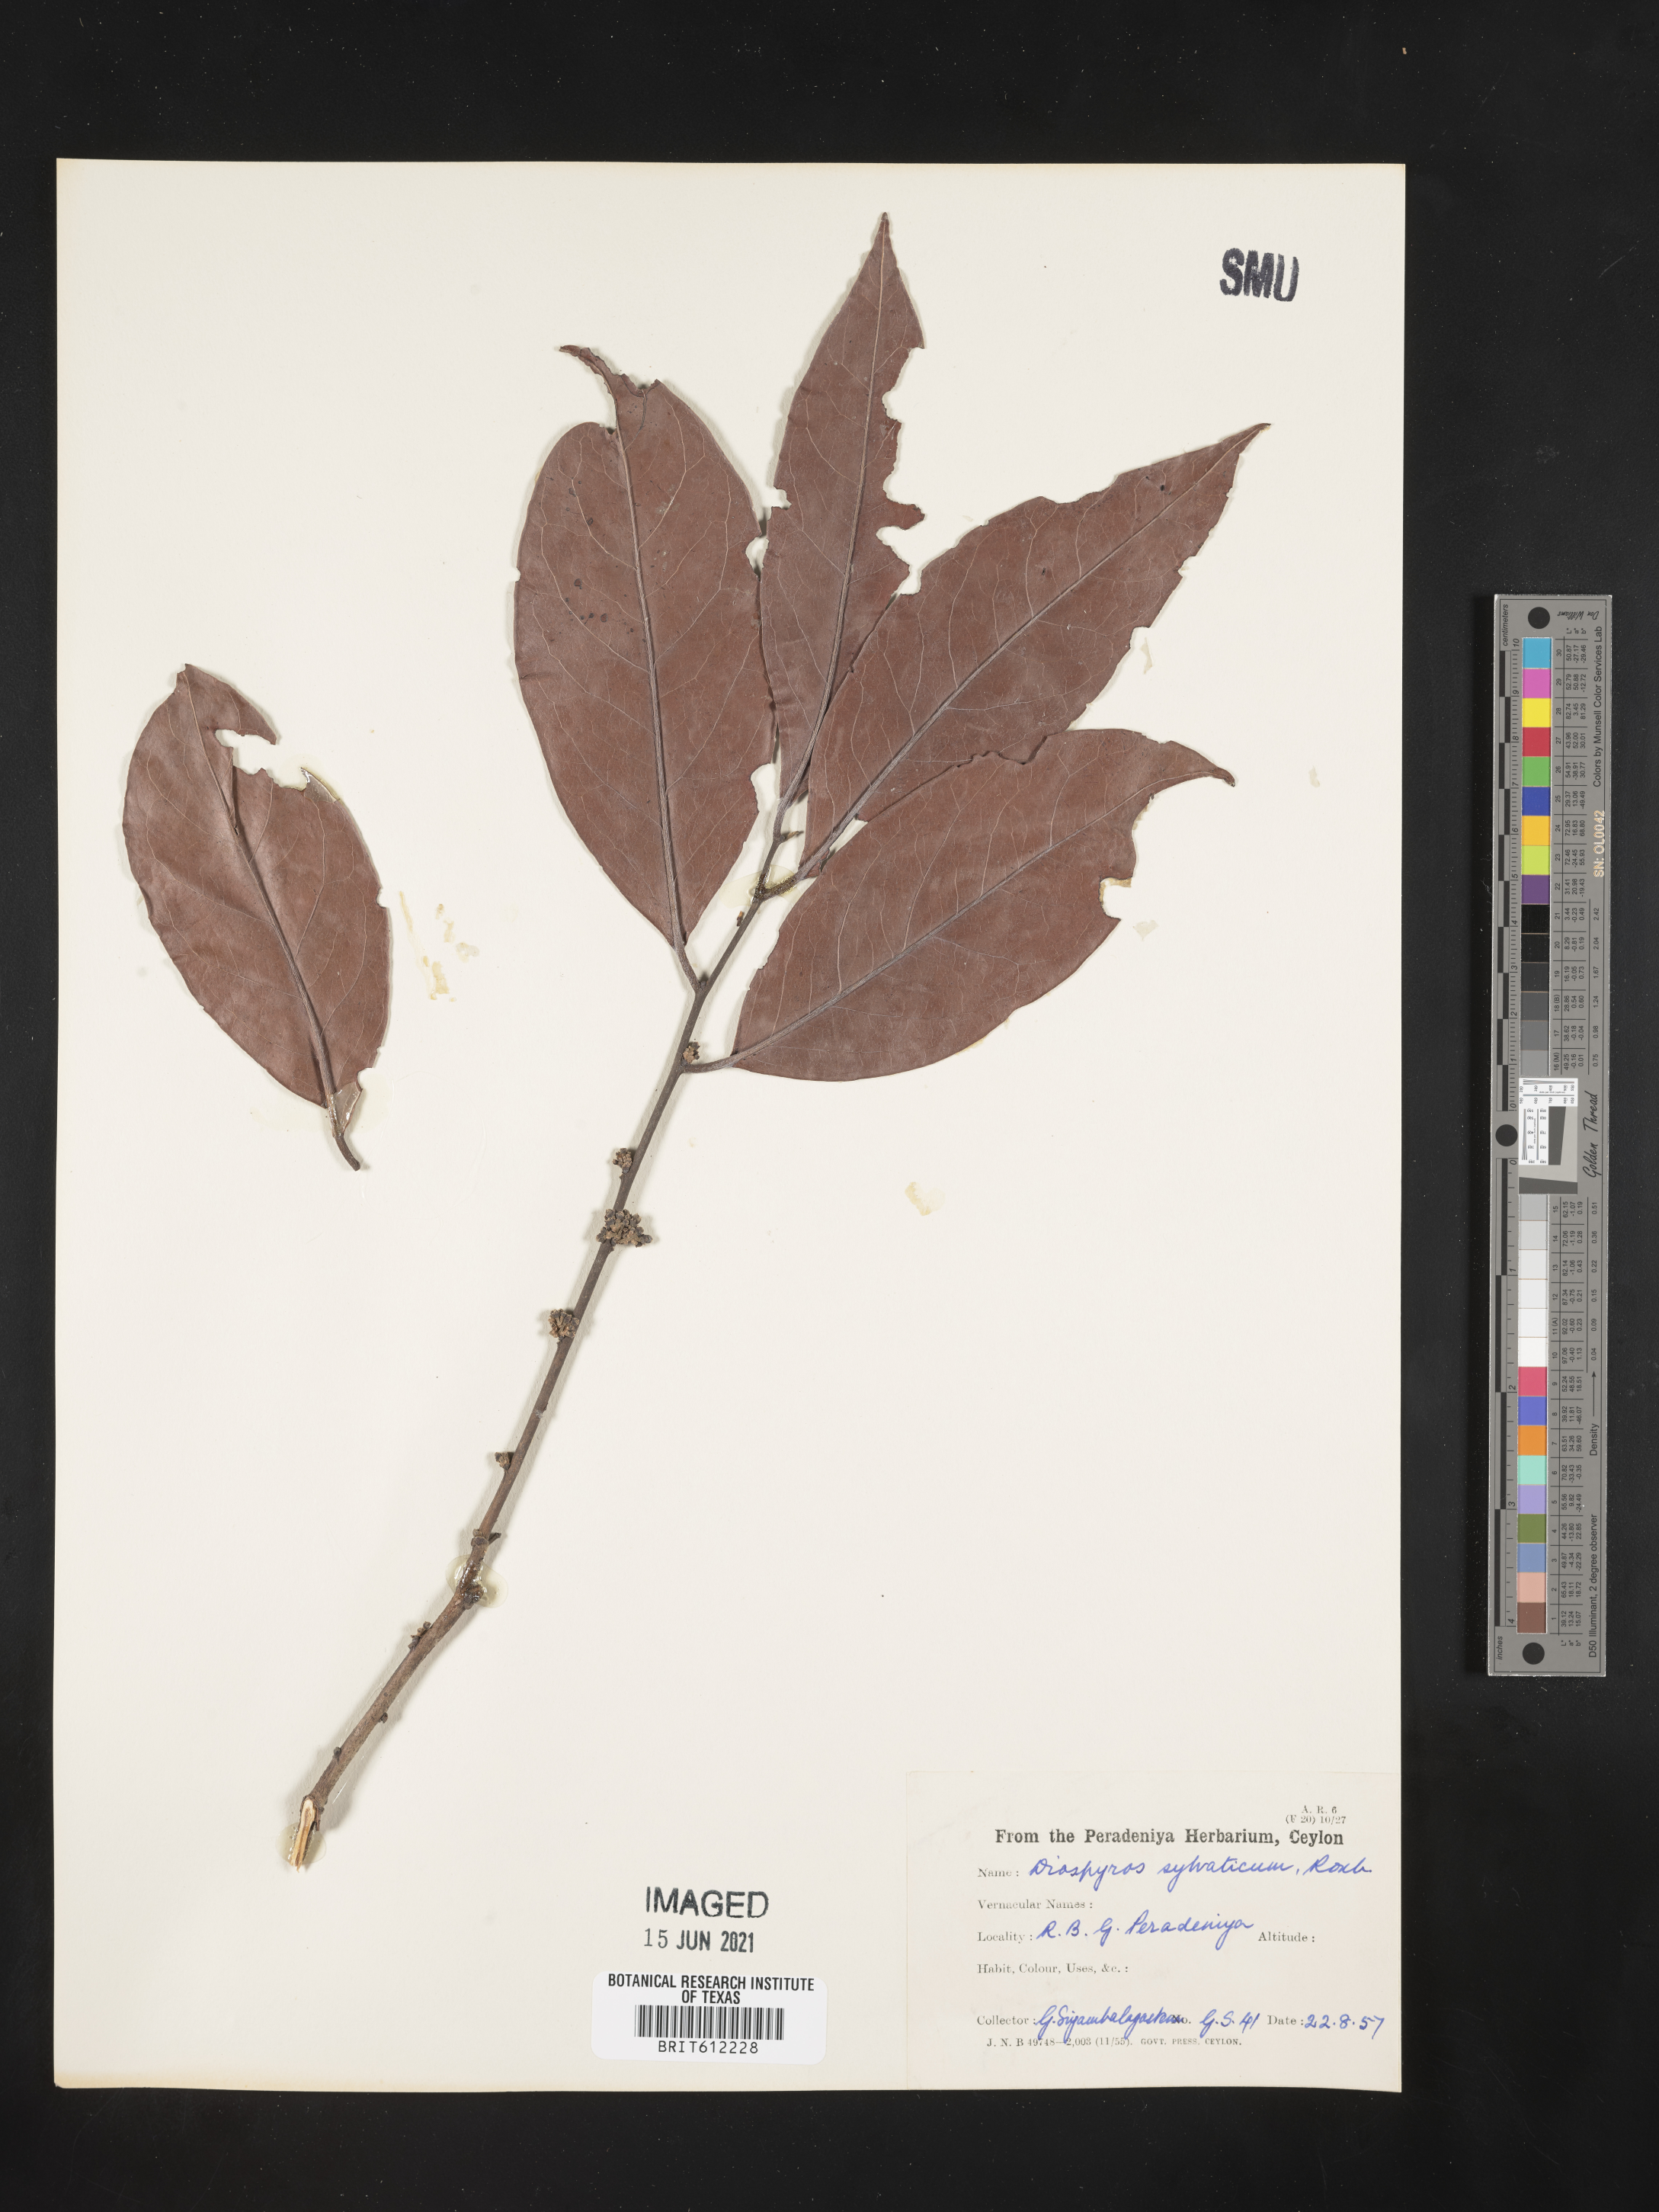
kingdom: Plantae
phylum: Tracheophyta
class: Magnoliopsida
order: Ericales
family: Ebenaceae
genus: Diospyros
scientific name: Diospyros sylvatica
